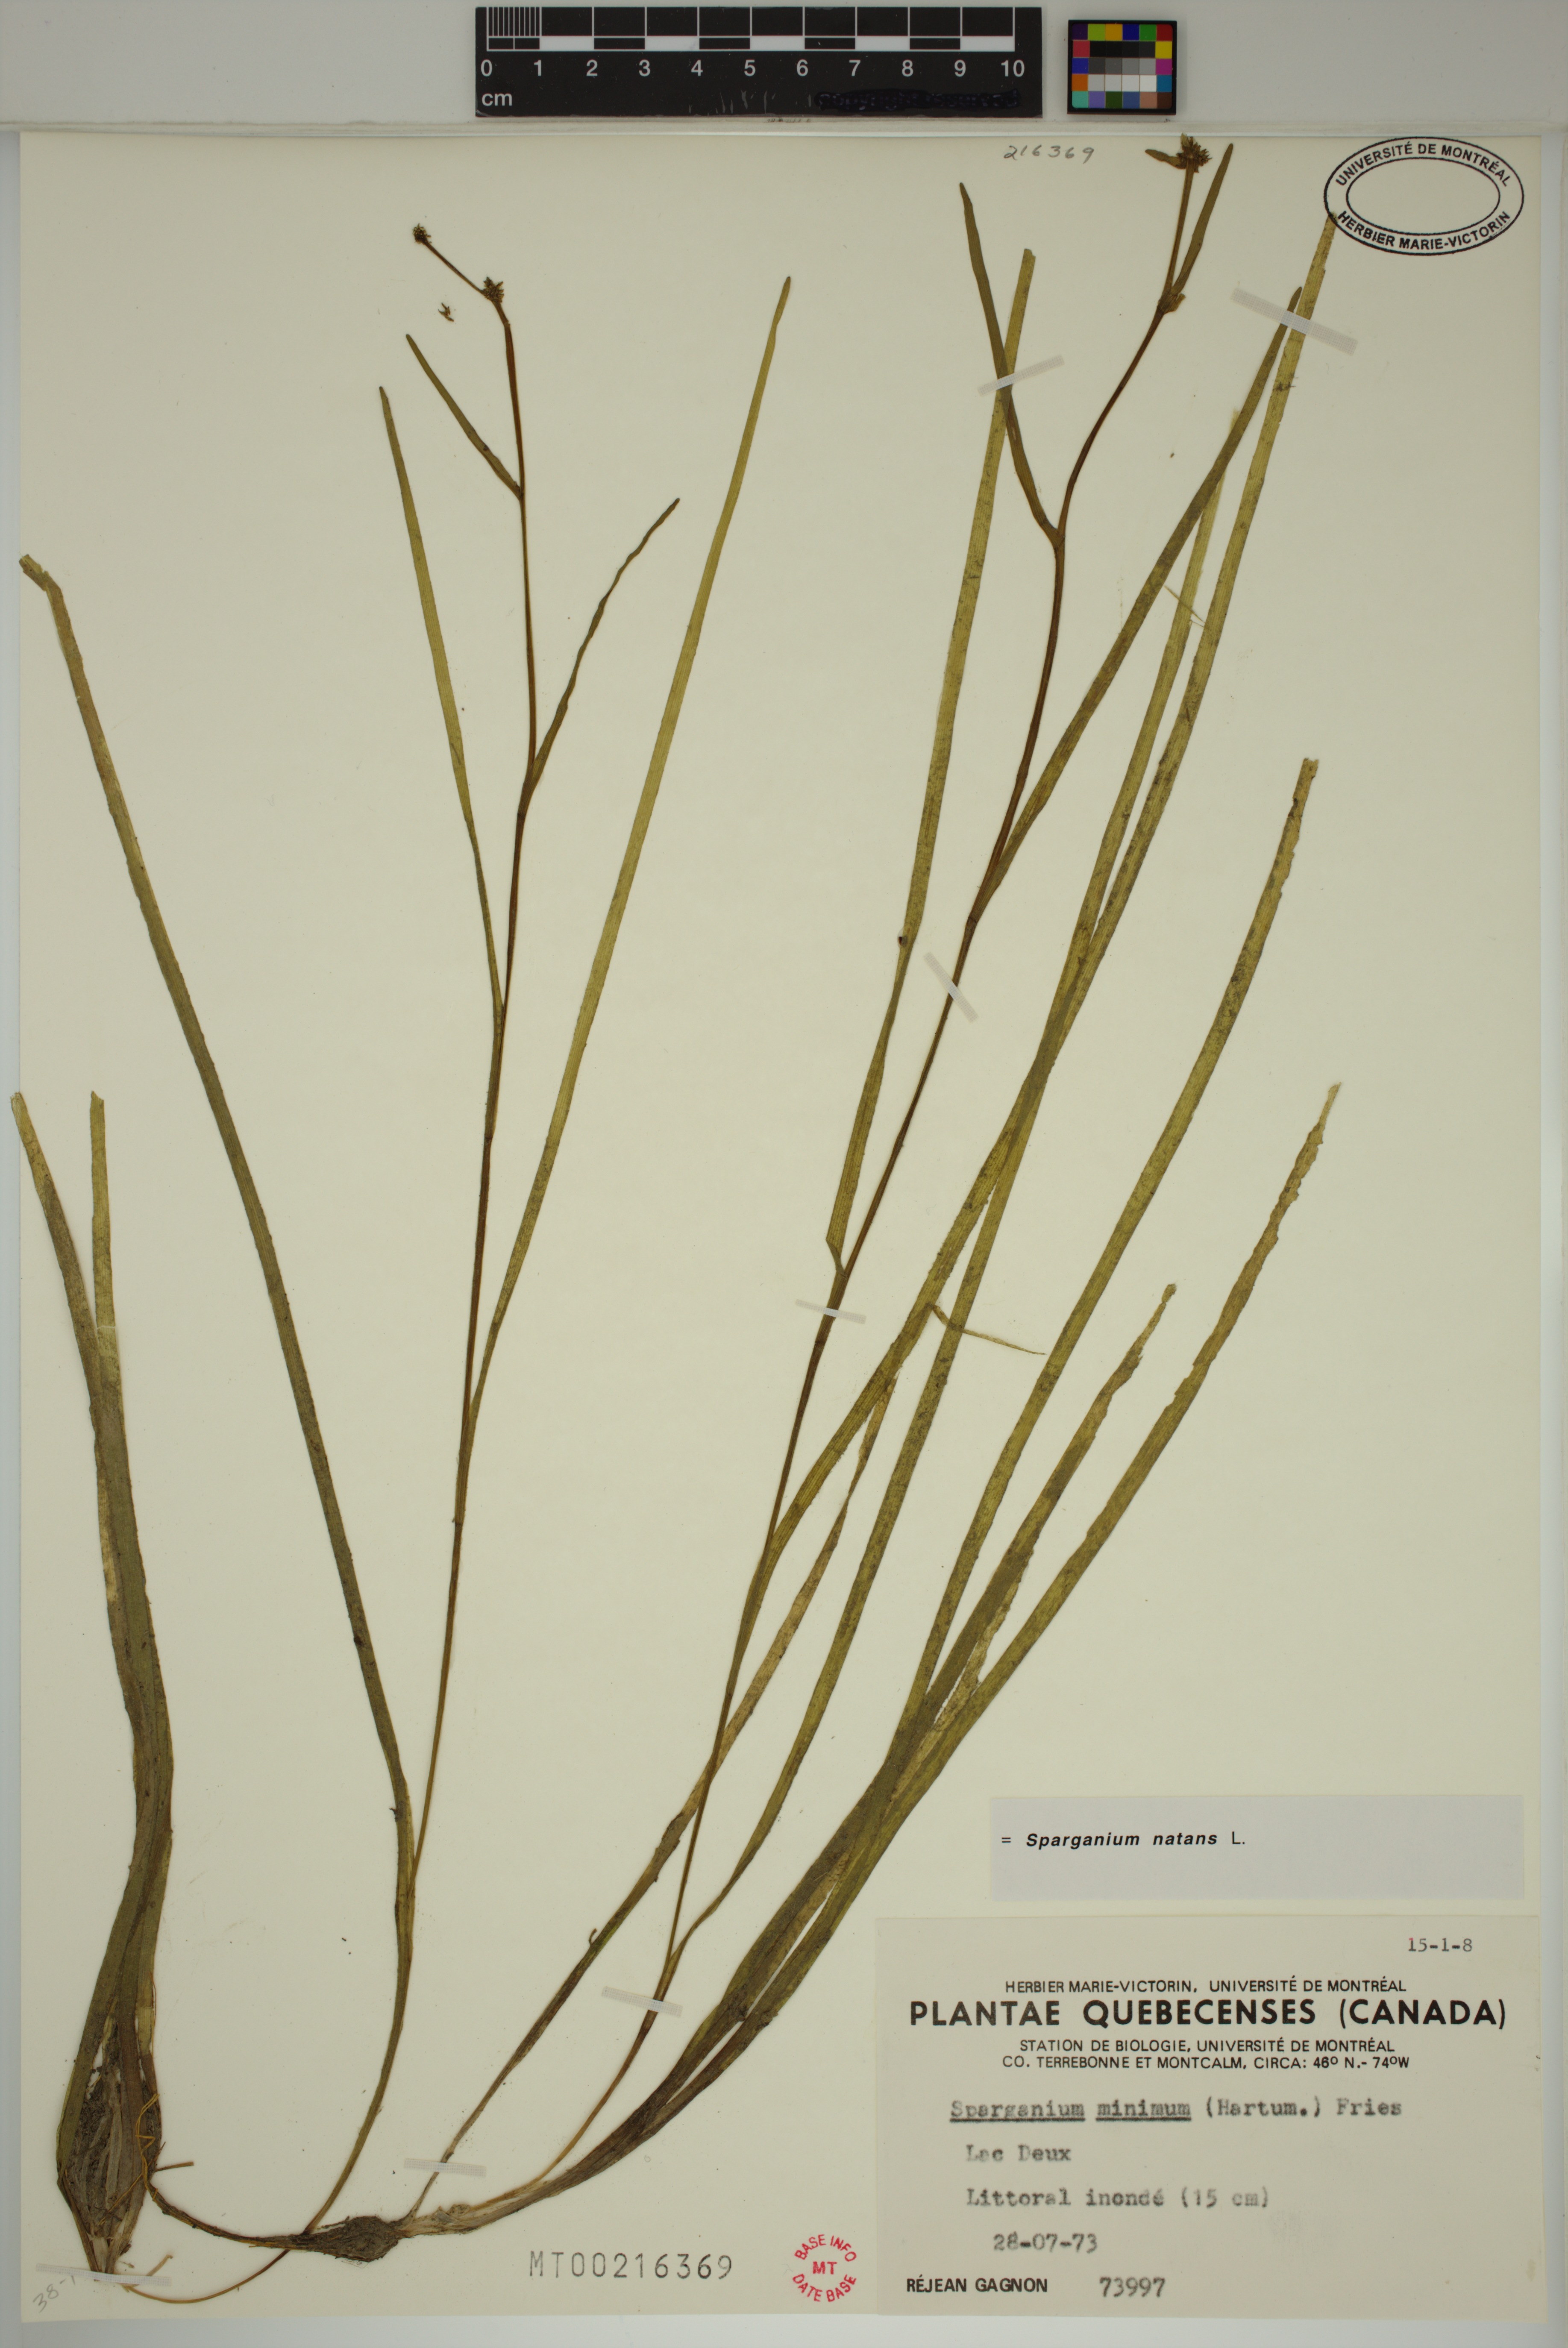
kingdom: Plantae
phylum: Tracheophyta
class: Liliopsida
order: Poales
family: Typhaceae
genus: Sparganium
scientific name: Sparganium natans
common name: Least bur-reed
